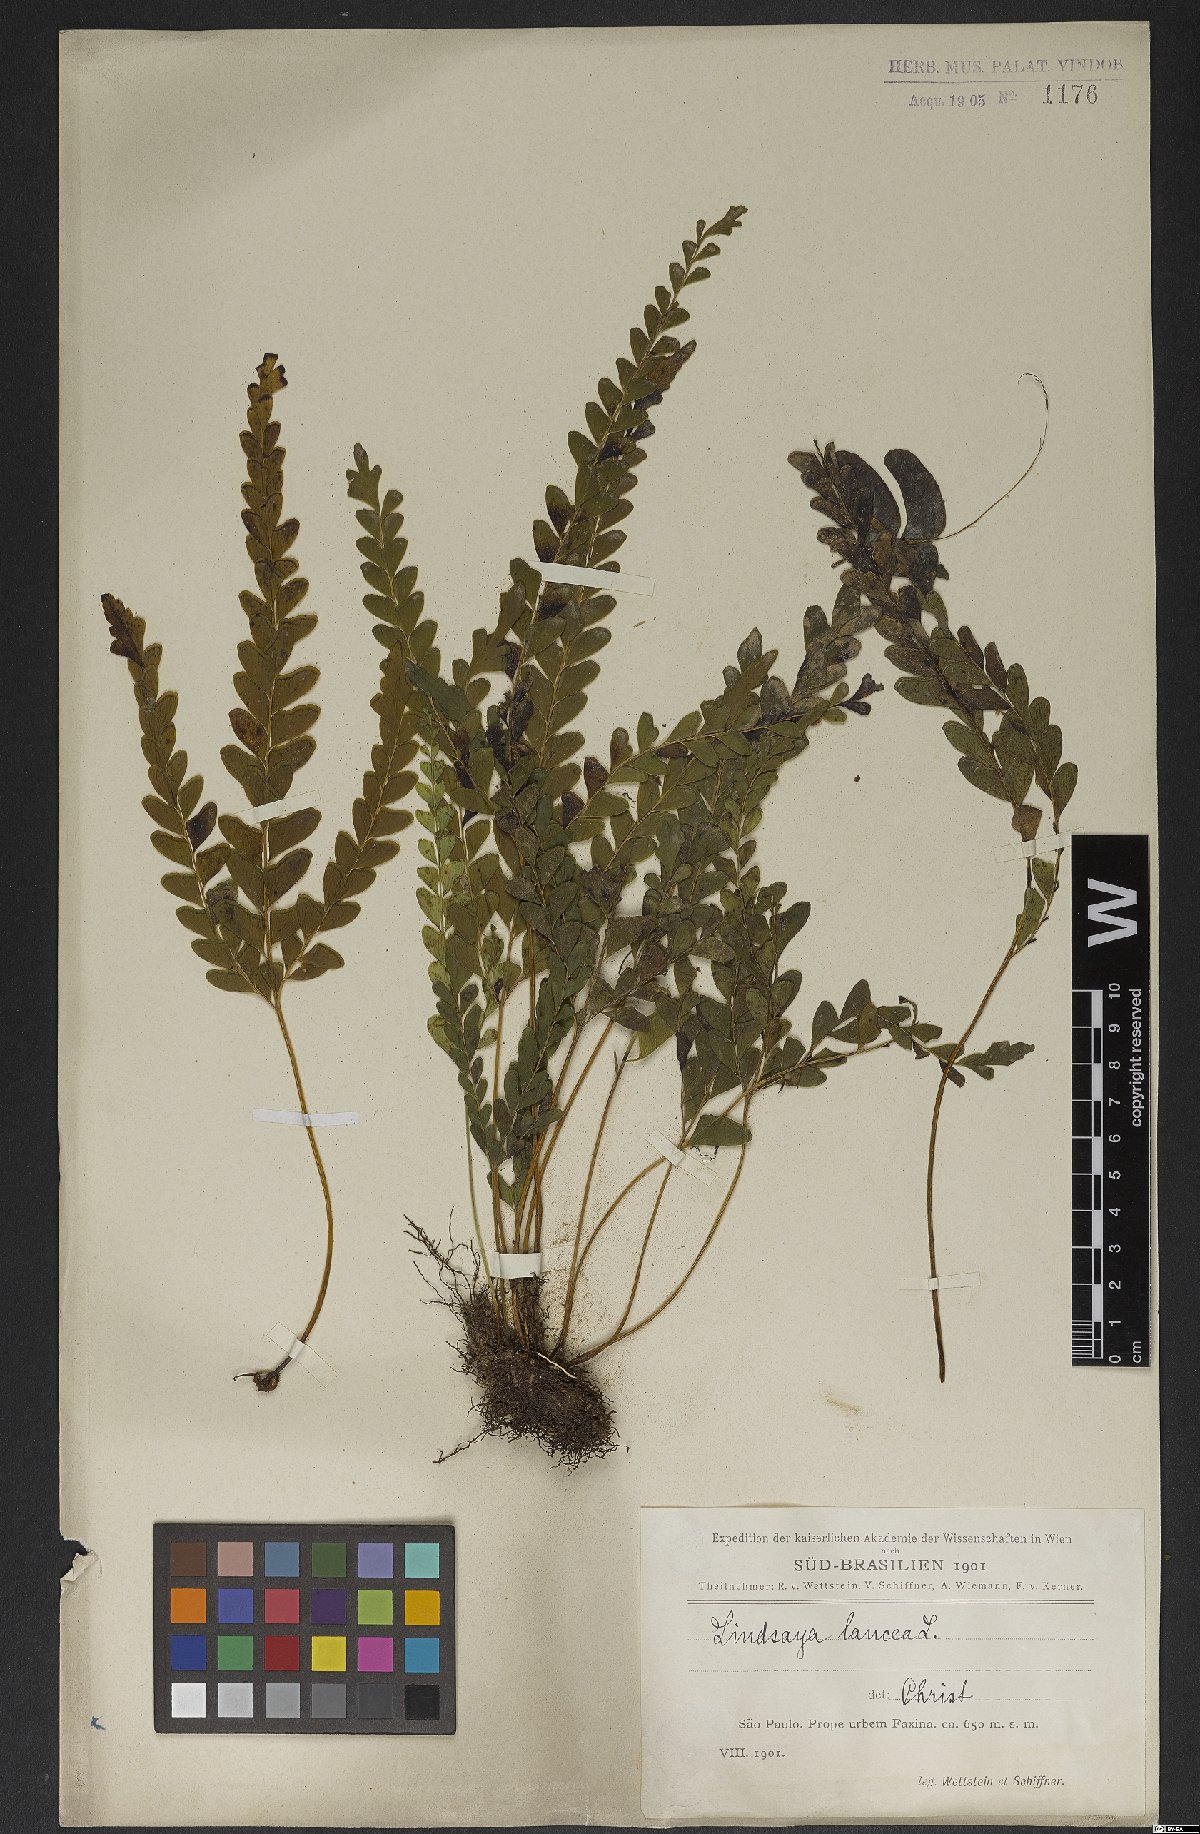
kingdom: Plantae
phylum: Tracheophyta
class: Polypodiopsida
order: Polypodiales
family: Lindsaeaceae
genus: Lindsaea
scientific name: Lindsaea lancea
